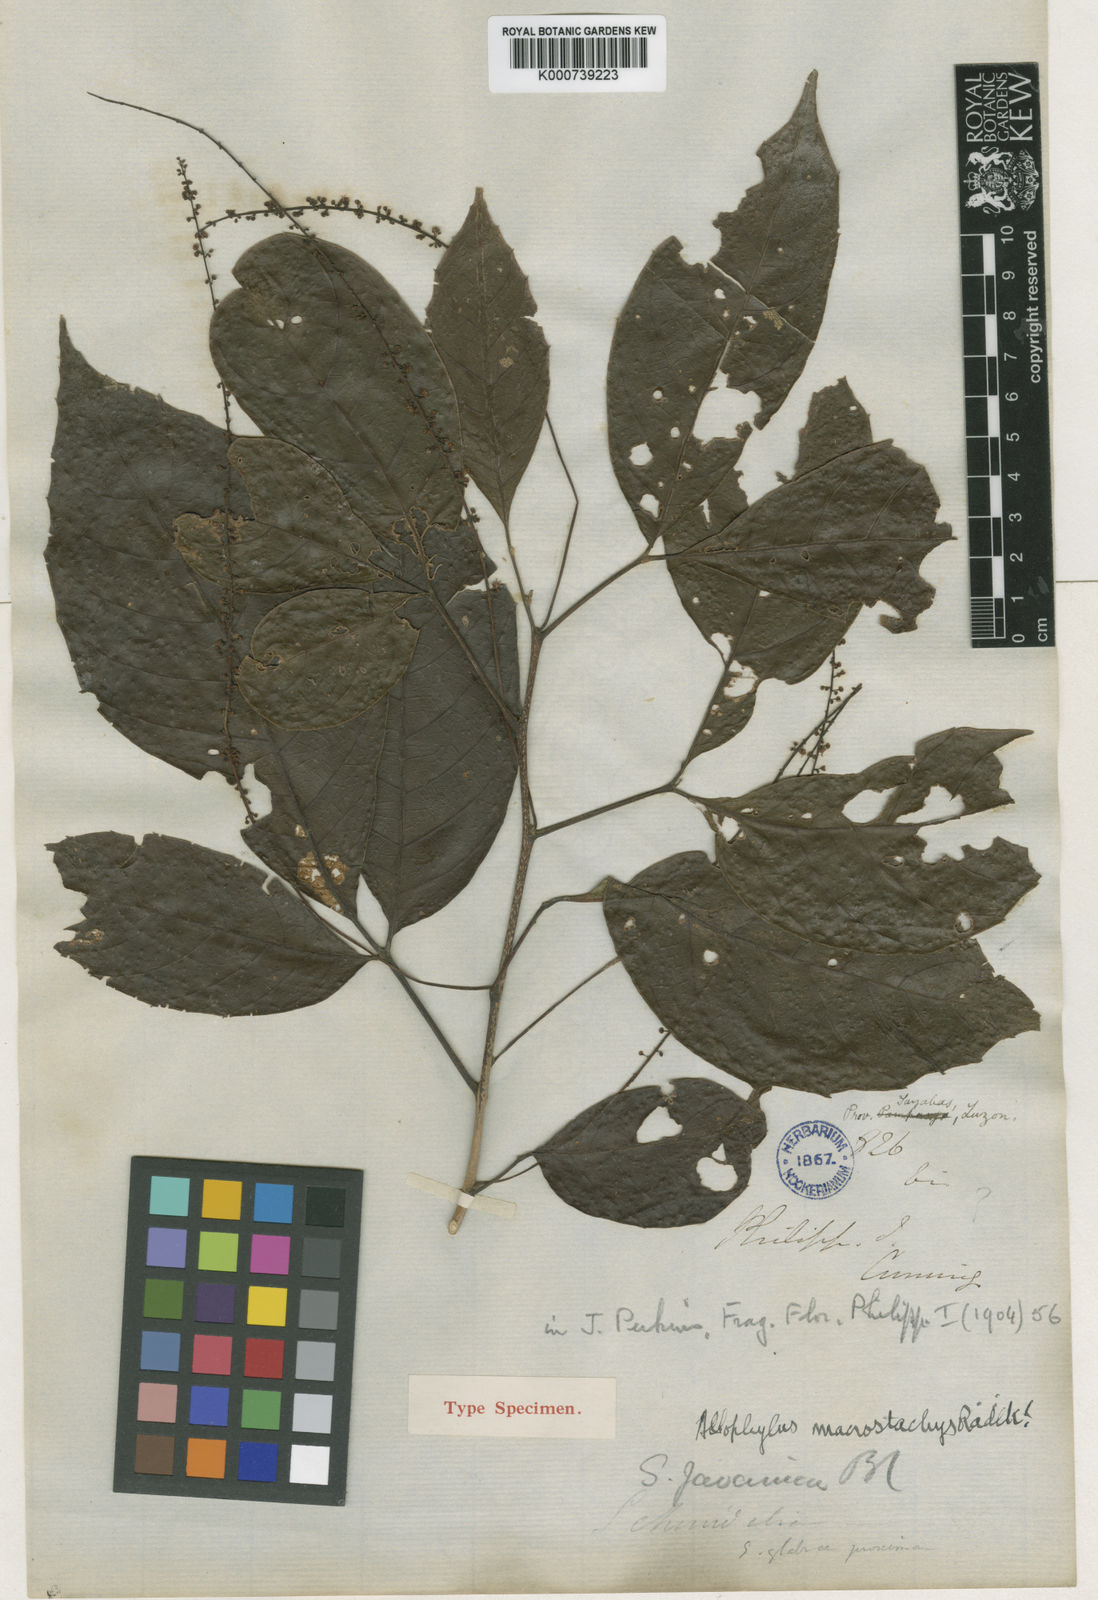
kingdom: Plantae
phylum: Tracheophyta
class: Magnoliopsida
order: Sapindales
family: Sapindaceae
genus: Allophylus
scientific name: Allophylus macrostachys
